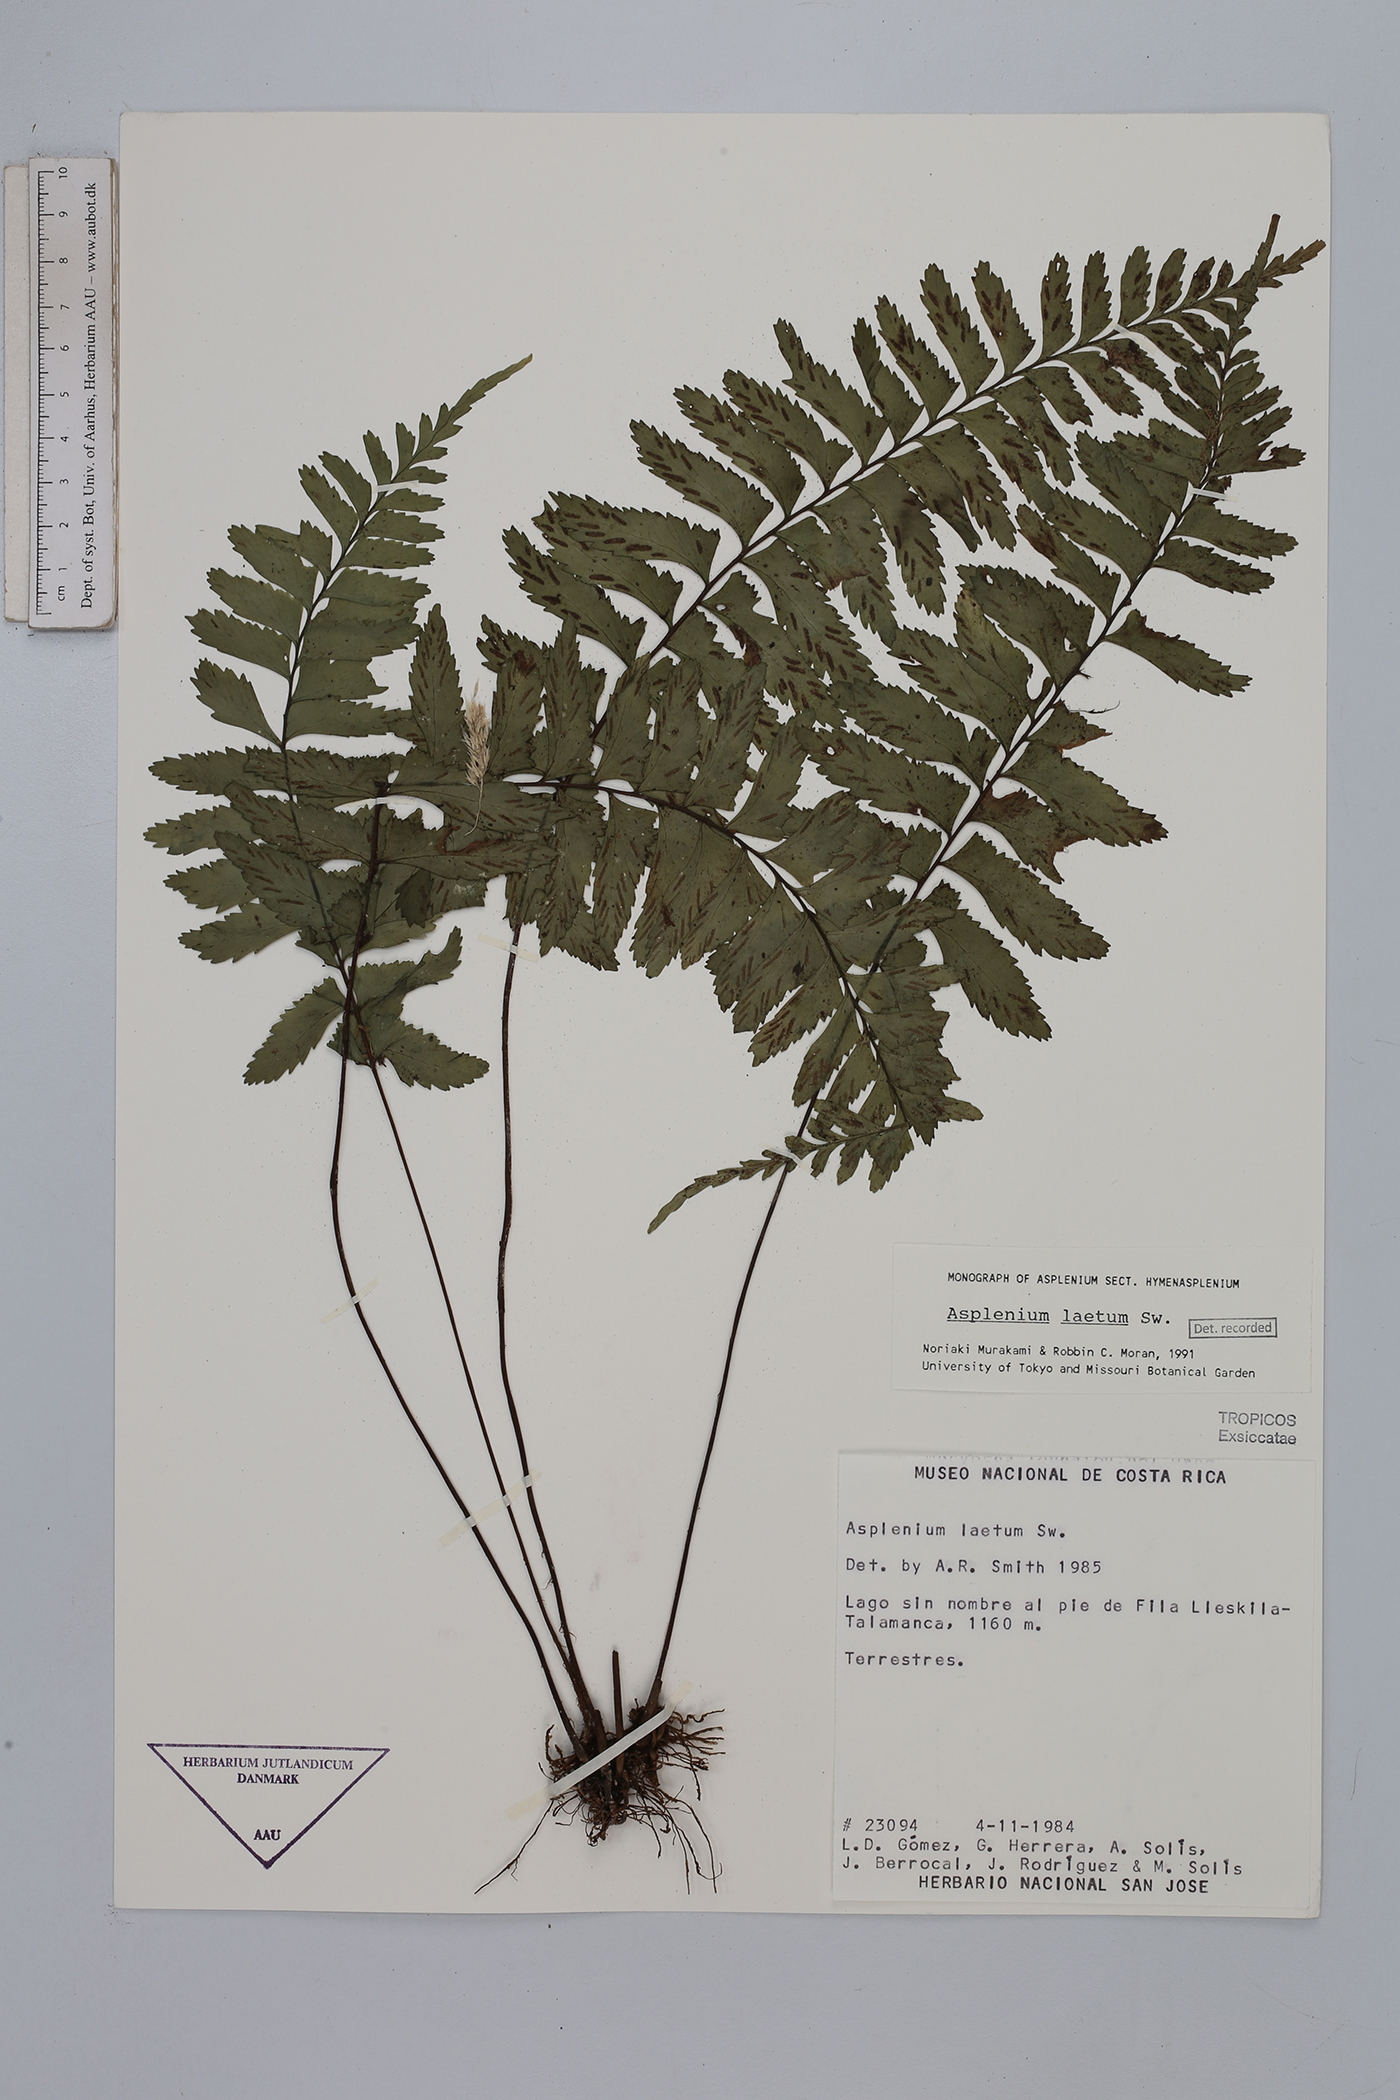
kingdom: Plantae
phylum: Tracheophyta
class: Polypodiopsida
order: Polypodiales
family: Aspleniaceae
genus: Hymenasplenium
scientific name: Hymenasplenium laetum
